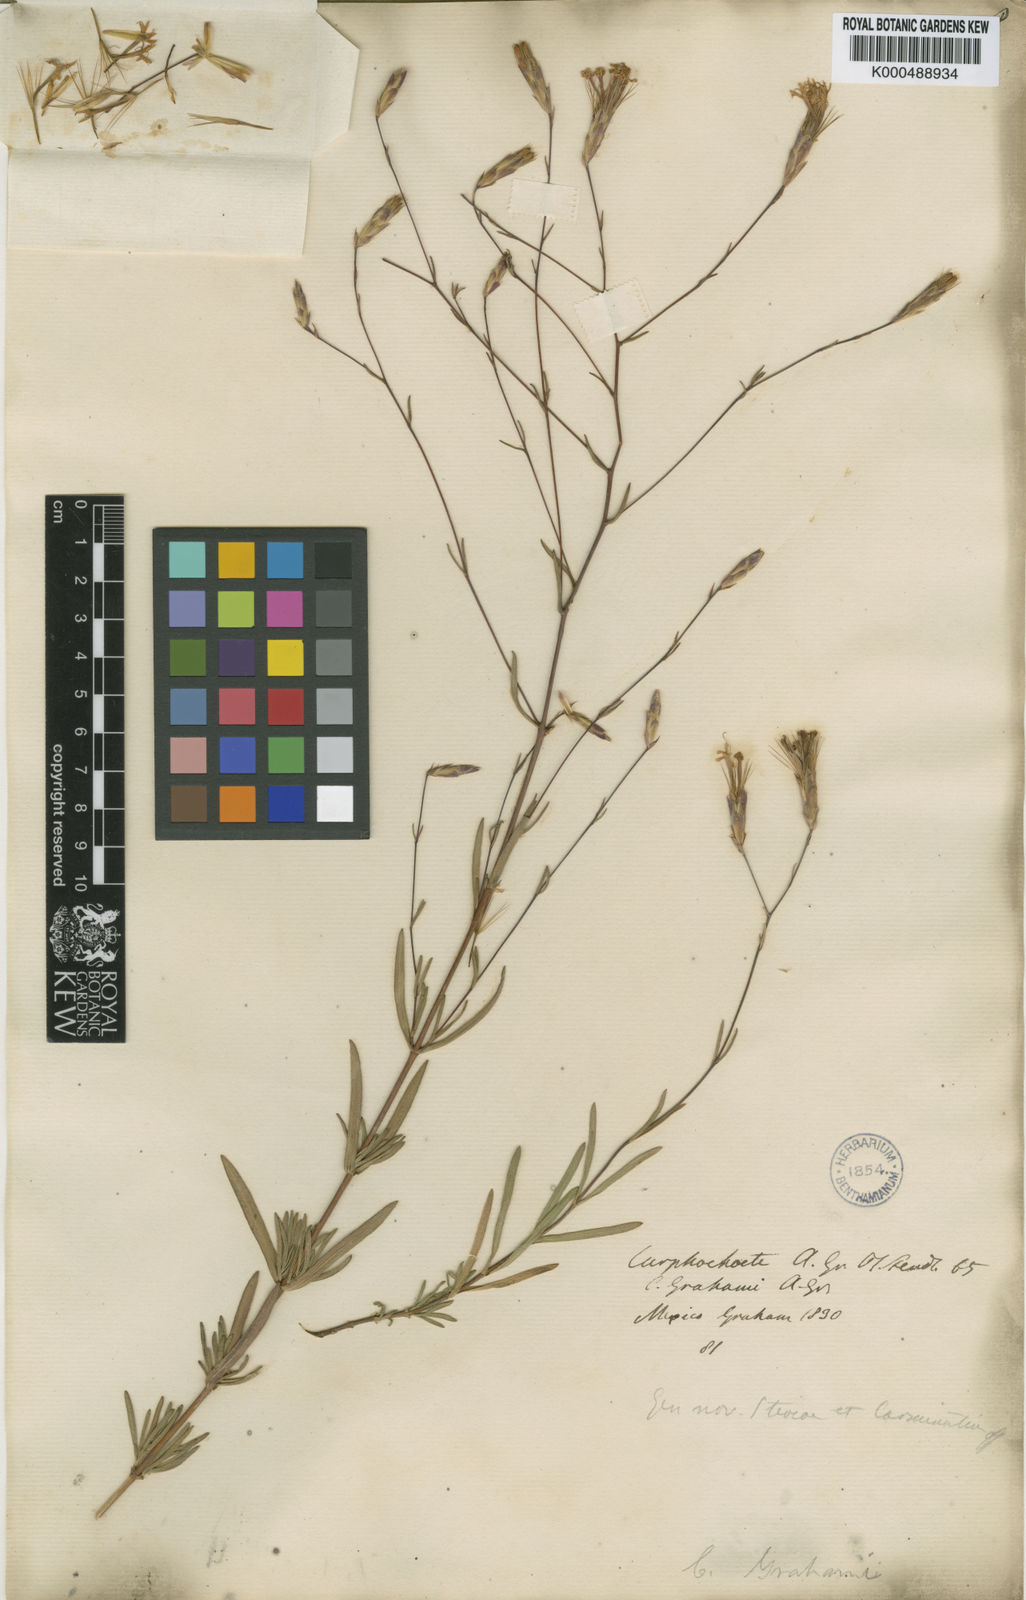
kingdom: Plantae
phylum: Tracheophyta
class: Magnoliopsida
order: Asterales
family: Asteraceae
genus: Carphochaete
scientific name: Carphochaete grahamii
